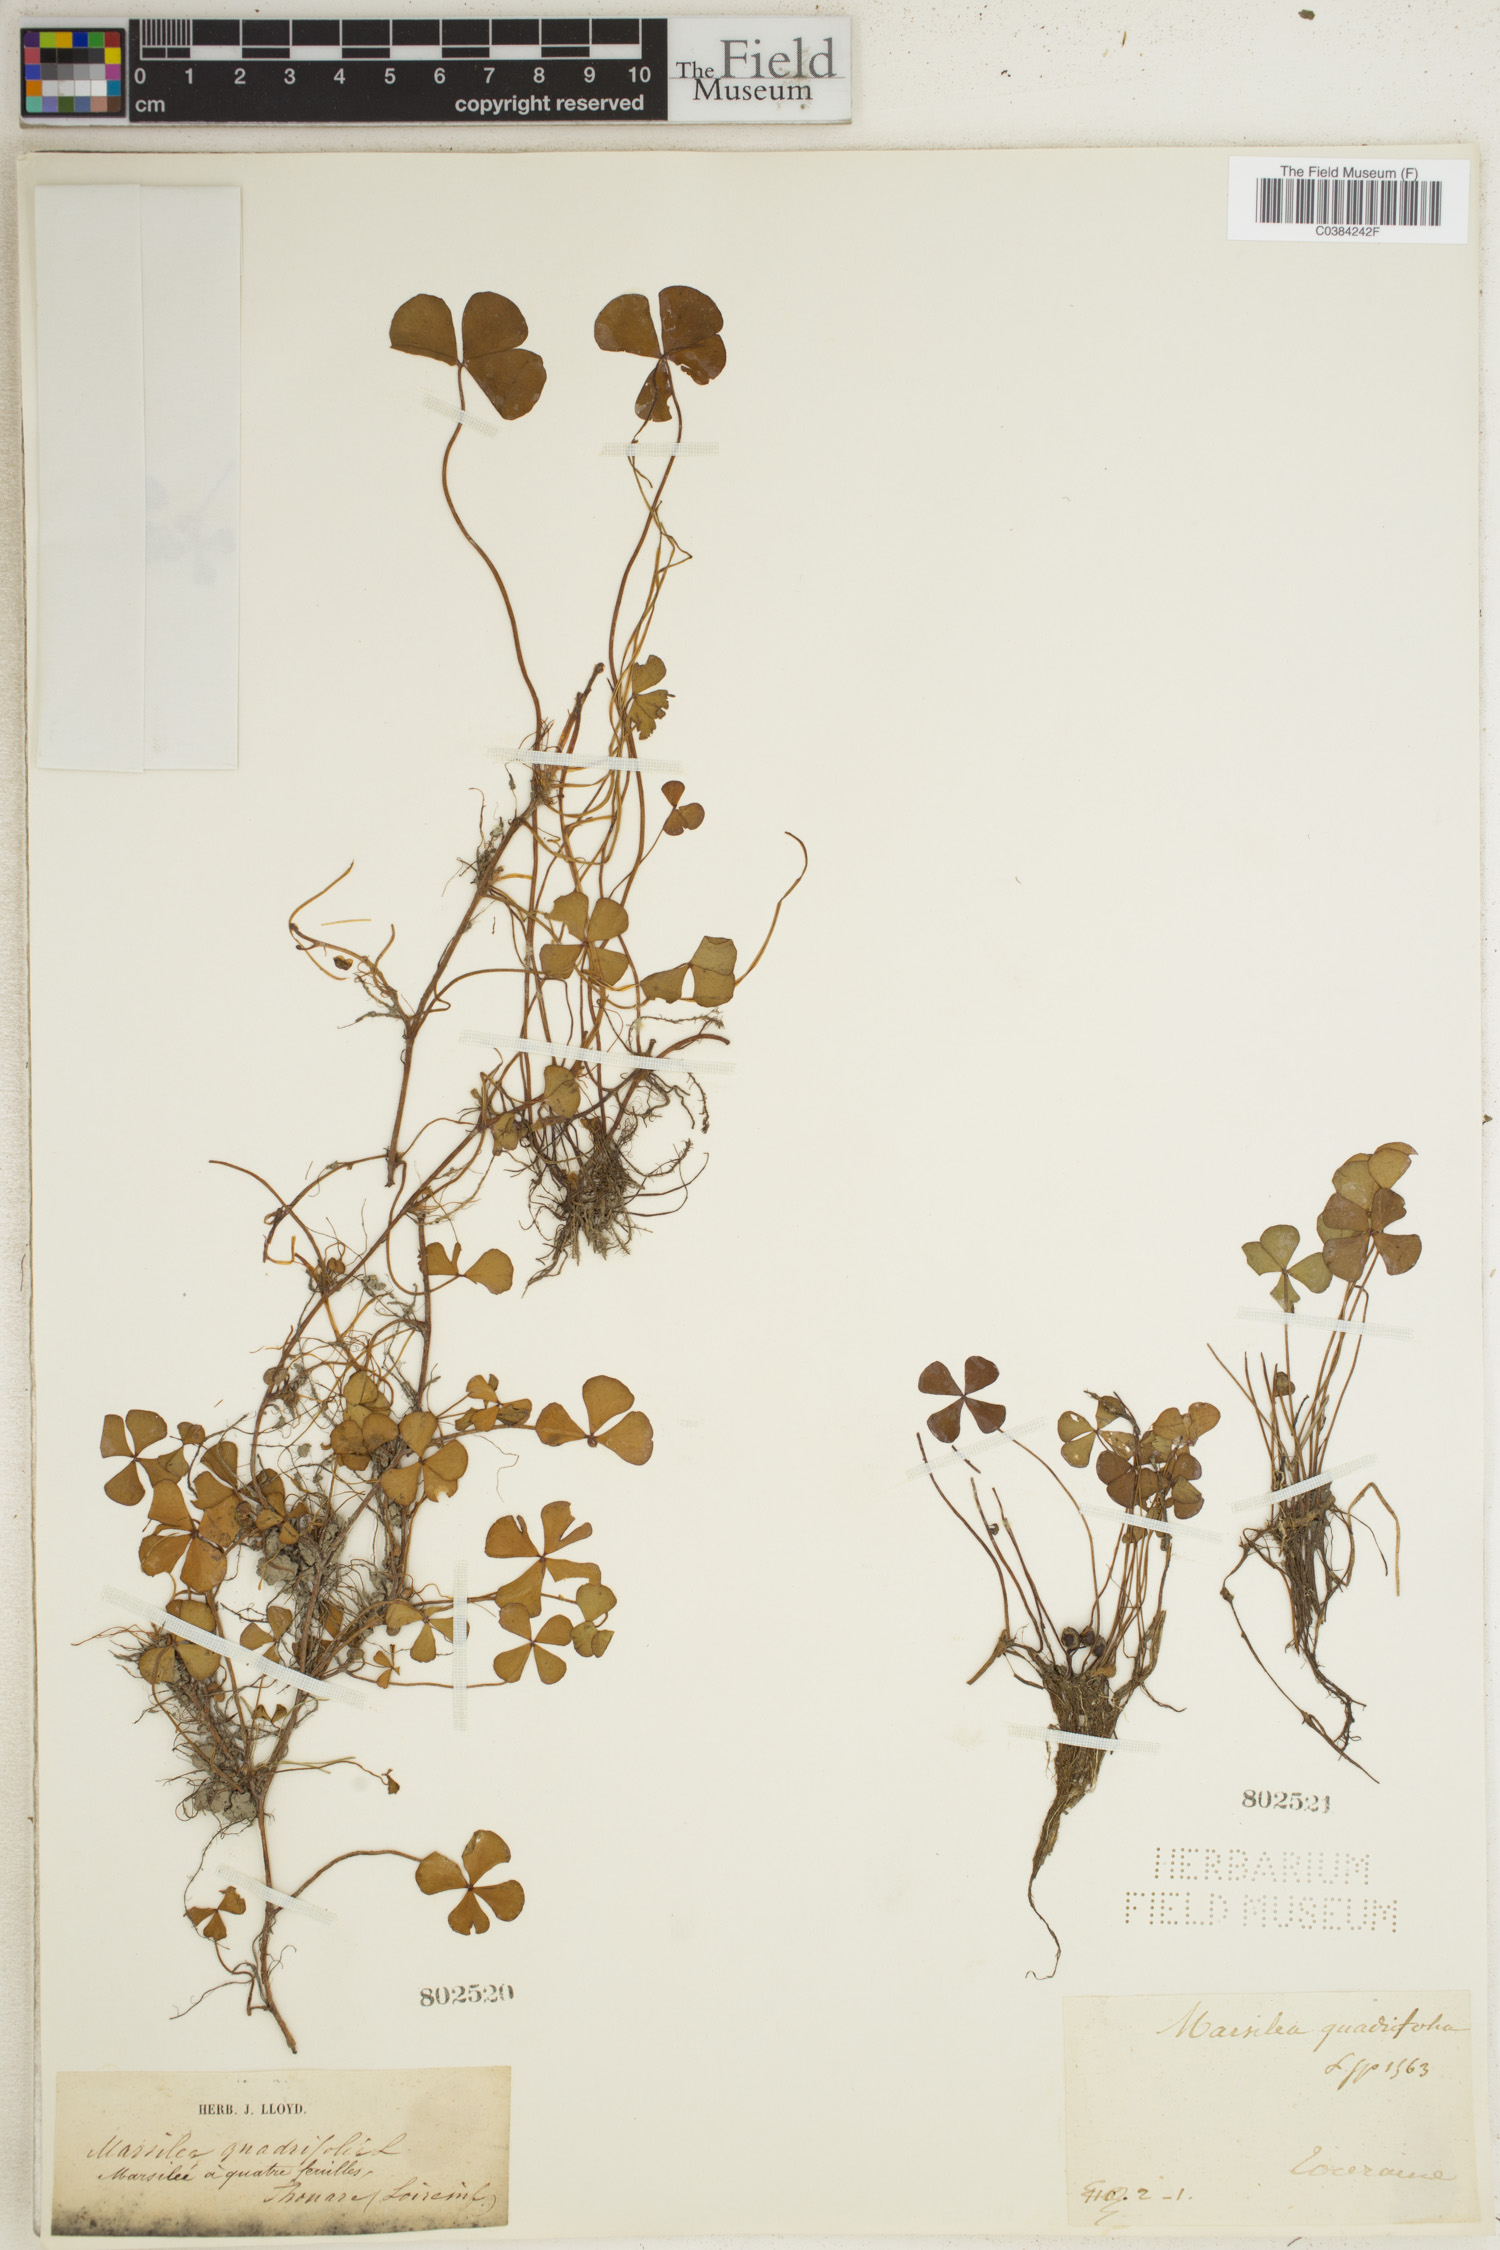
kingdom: Plantae
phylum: Tracheophyta
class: Polypodiopsida
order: Salviniales
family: Marsileaceae
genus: Marsilea
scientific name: Marsilea quadrifolia
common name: Water shamrock
